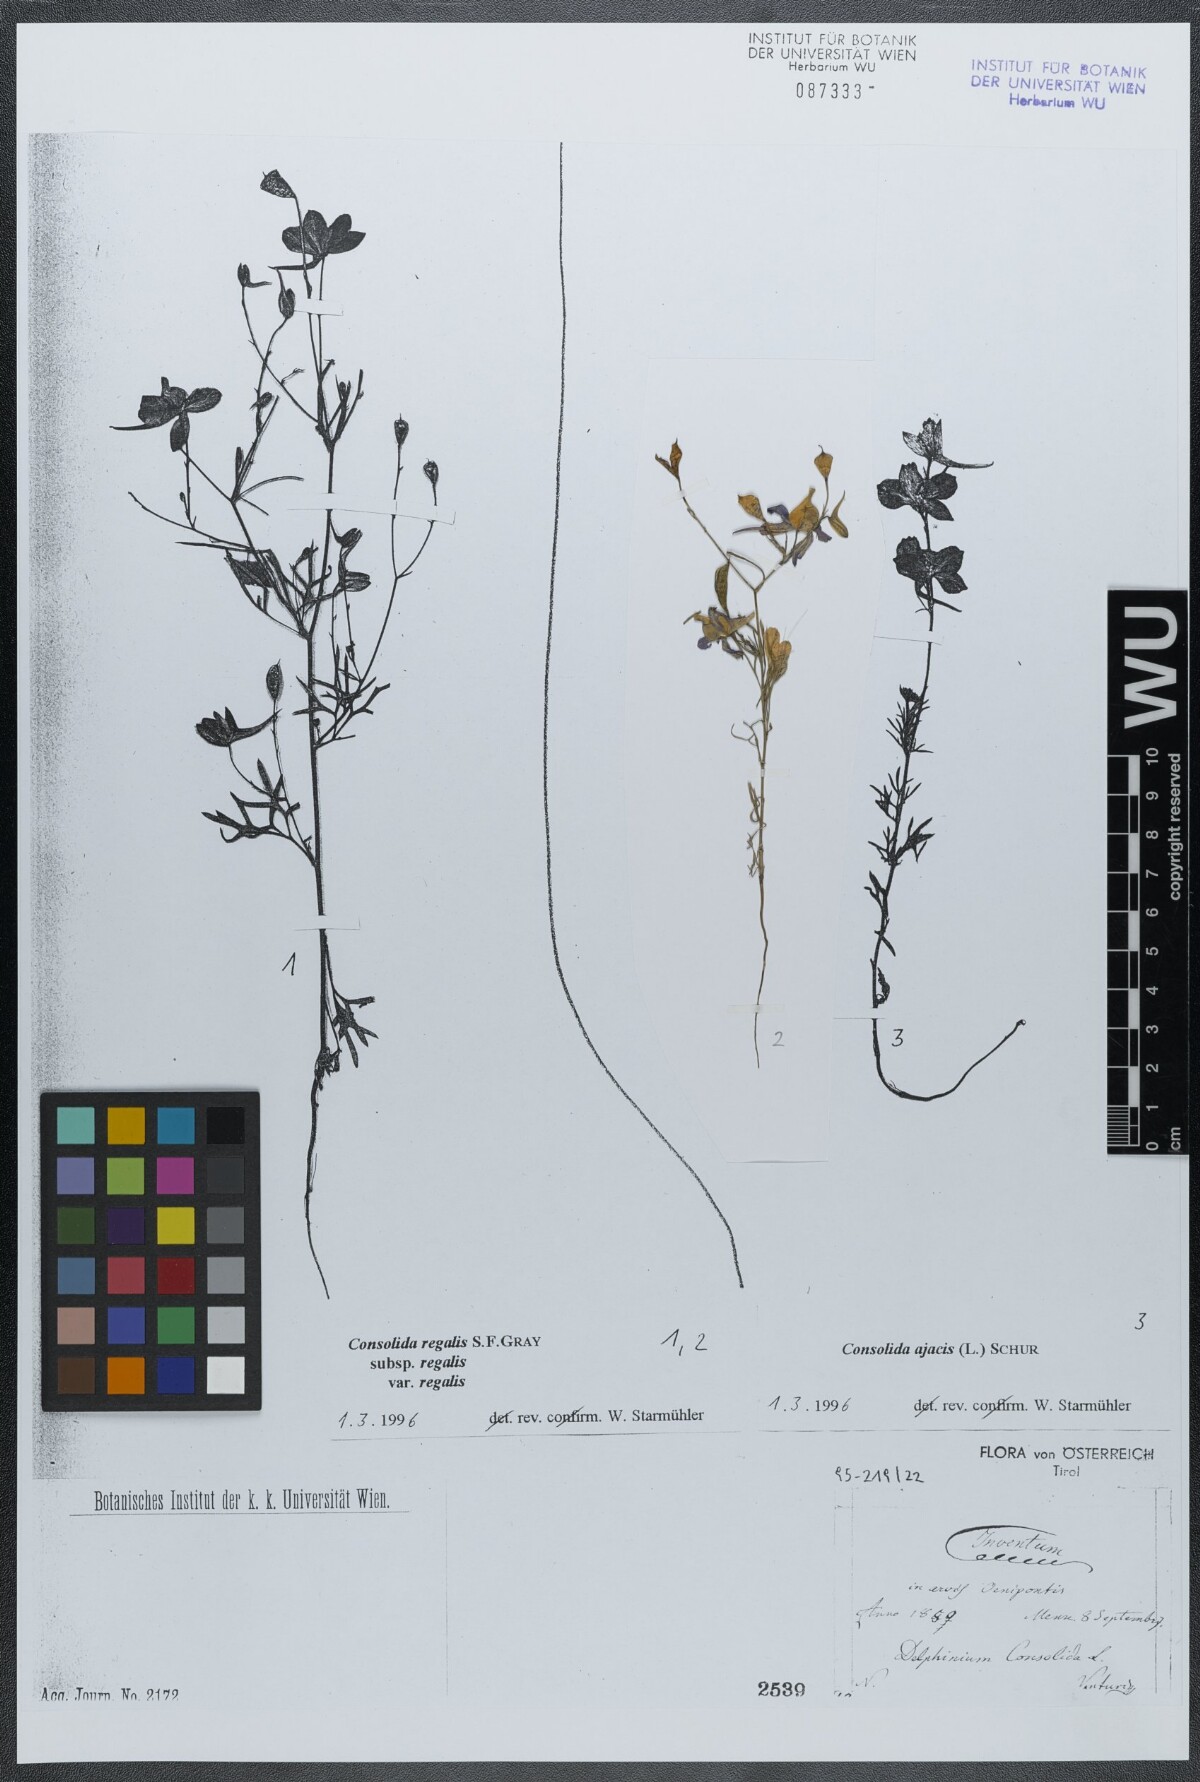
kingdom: Plantae
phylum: Tracheophyta
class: Magnoliopsida
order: Ranunculales
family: Ranunculaceae
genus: Delphinium
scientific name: Delphinium consolida
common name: Branching larkspur
